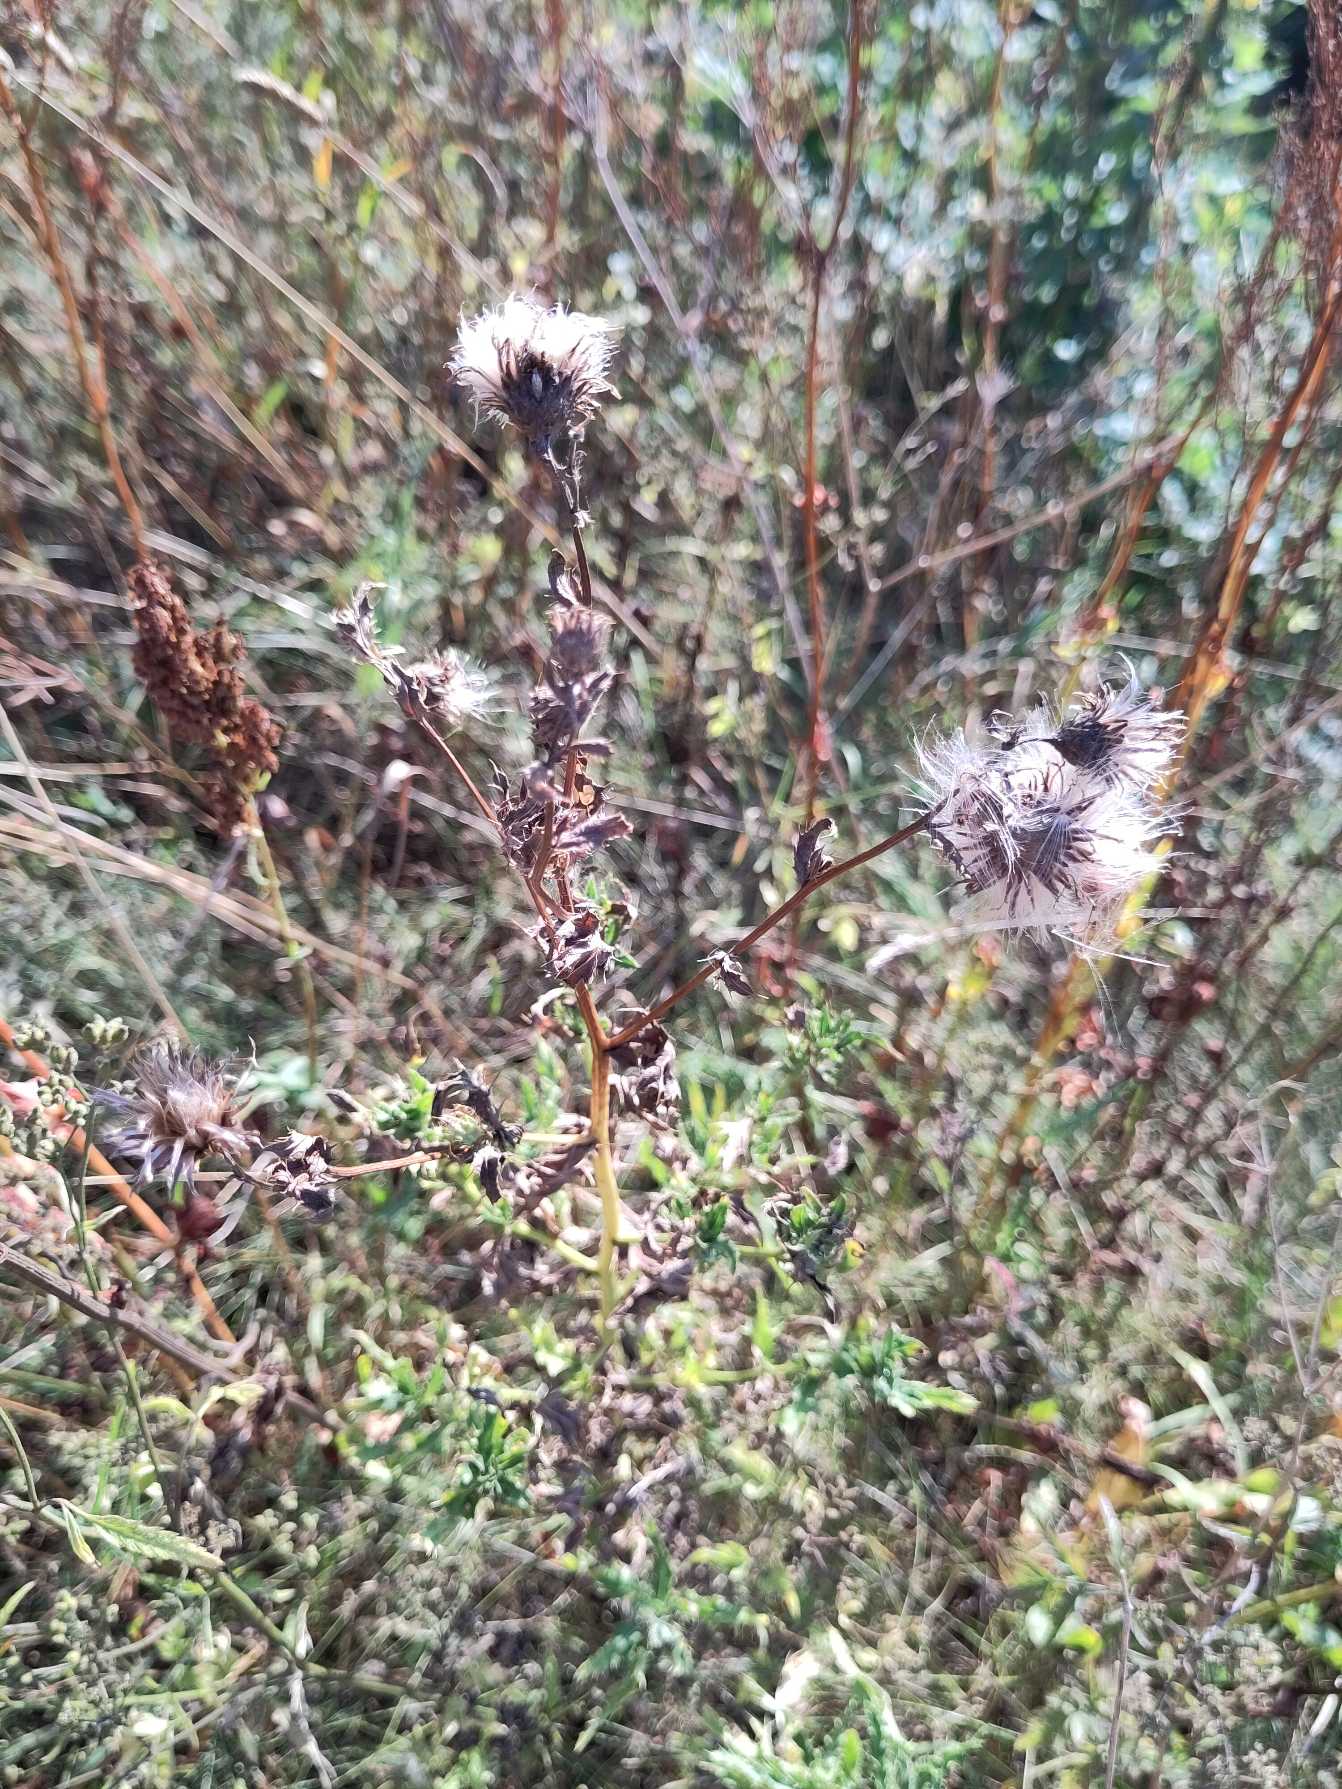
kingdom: Plantae
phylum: Tracheophyta
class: Magnoliopsida
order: Asterales
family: Asteraceae
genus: Cirsium
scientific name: Cirsium arvense
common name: Ager-tidsel
